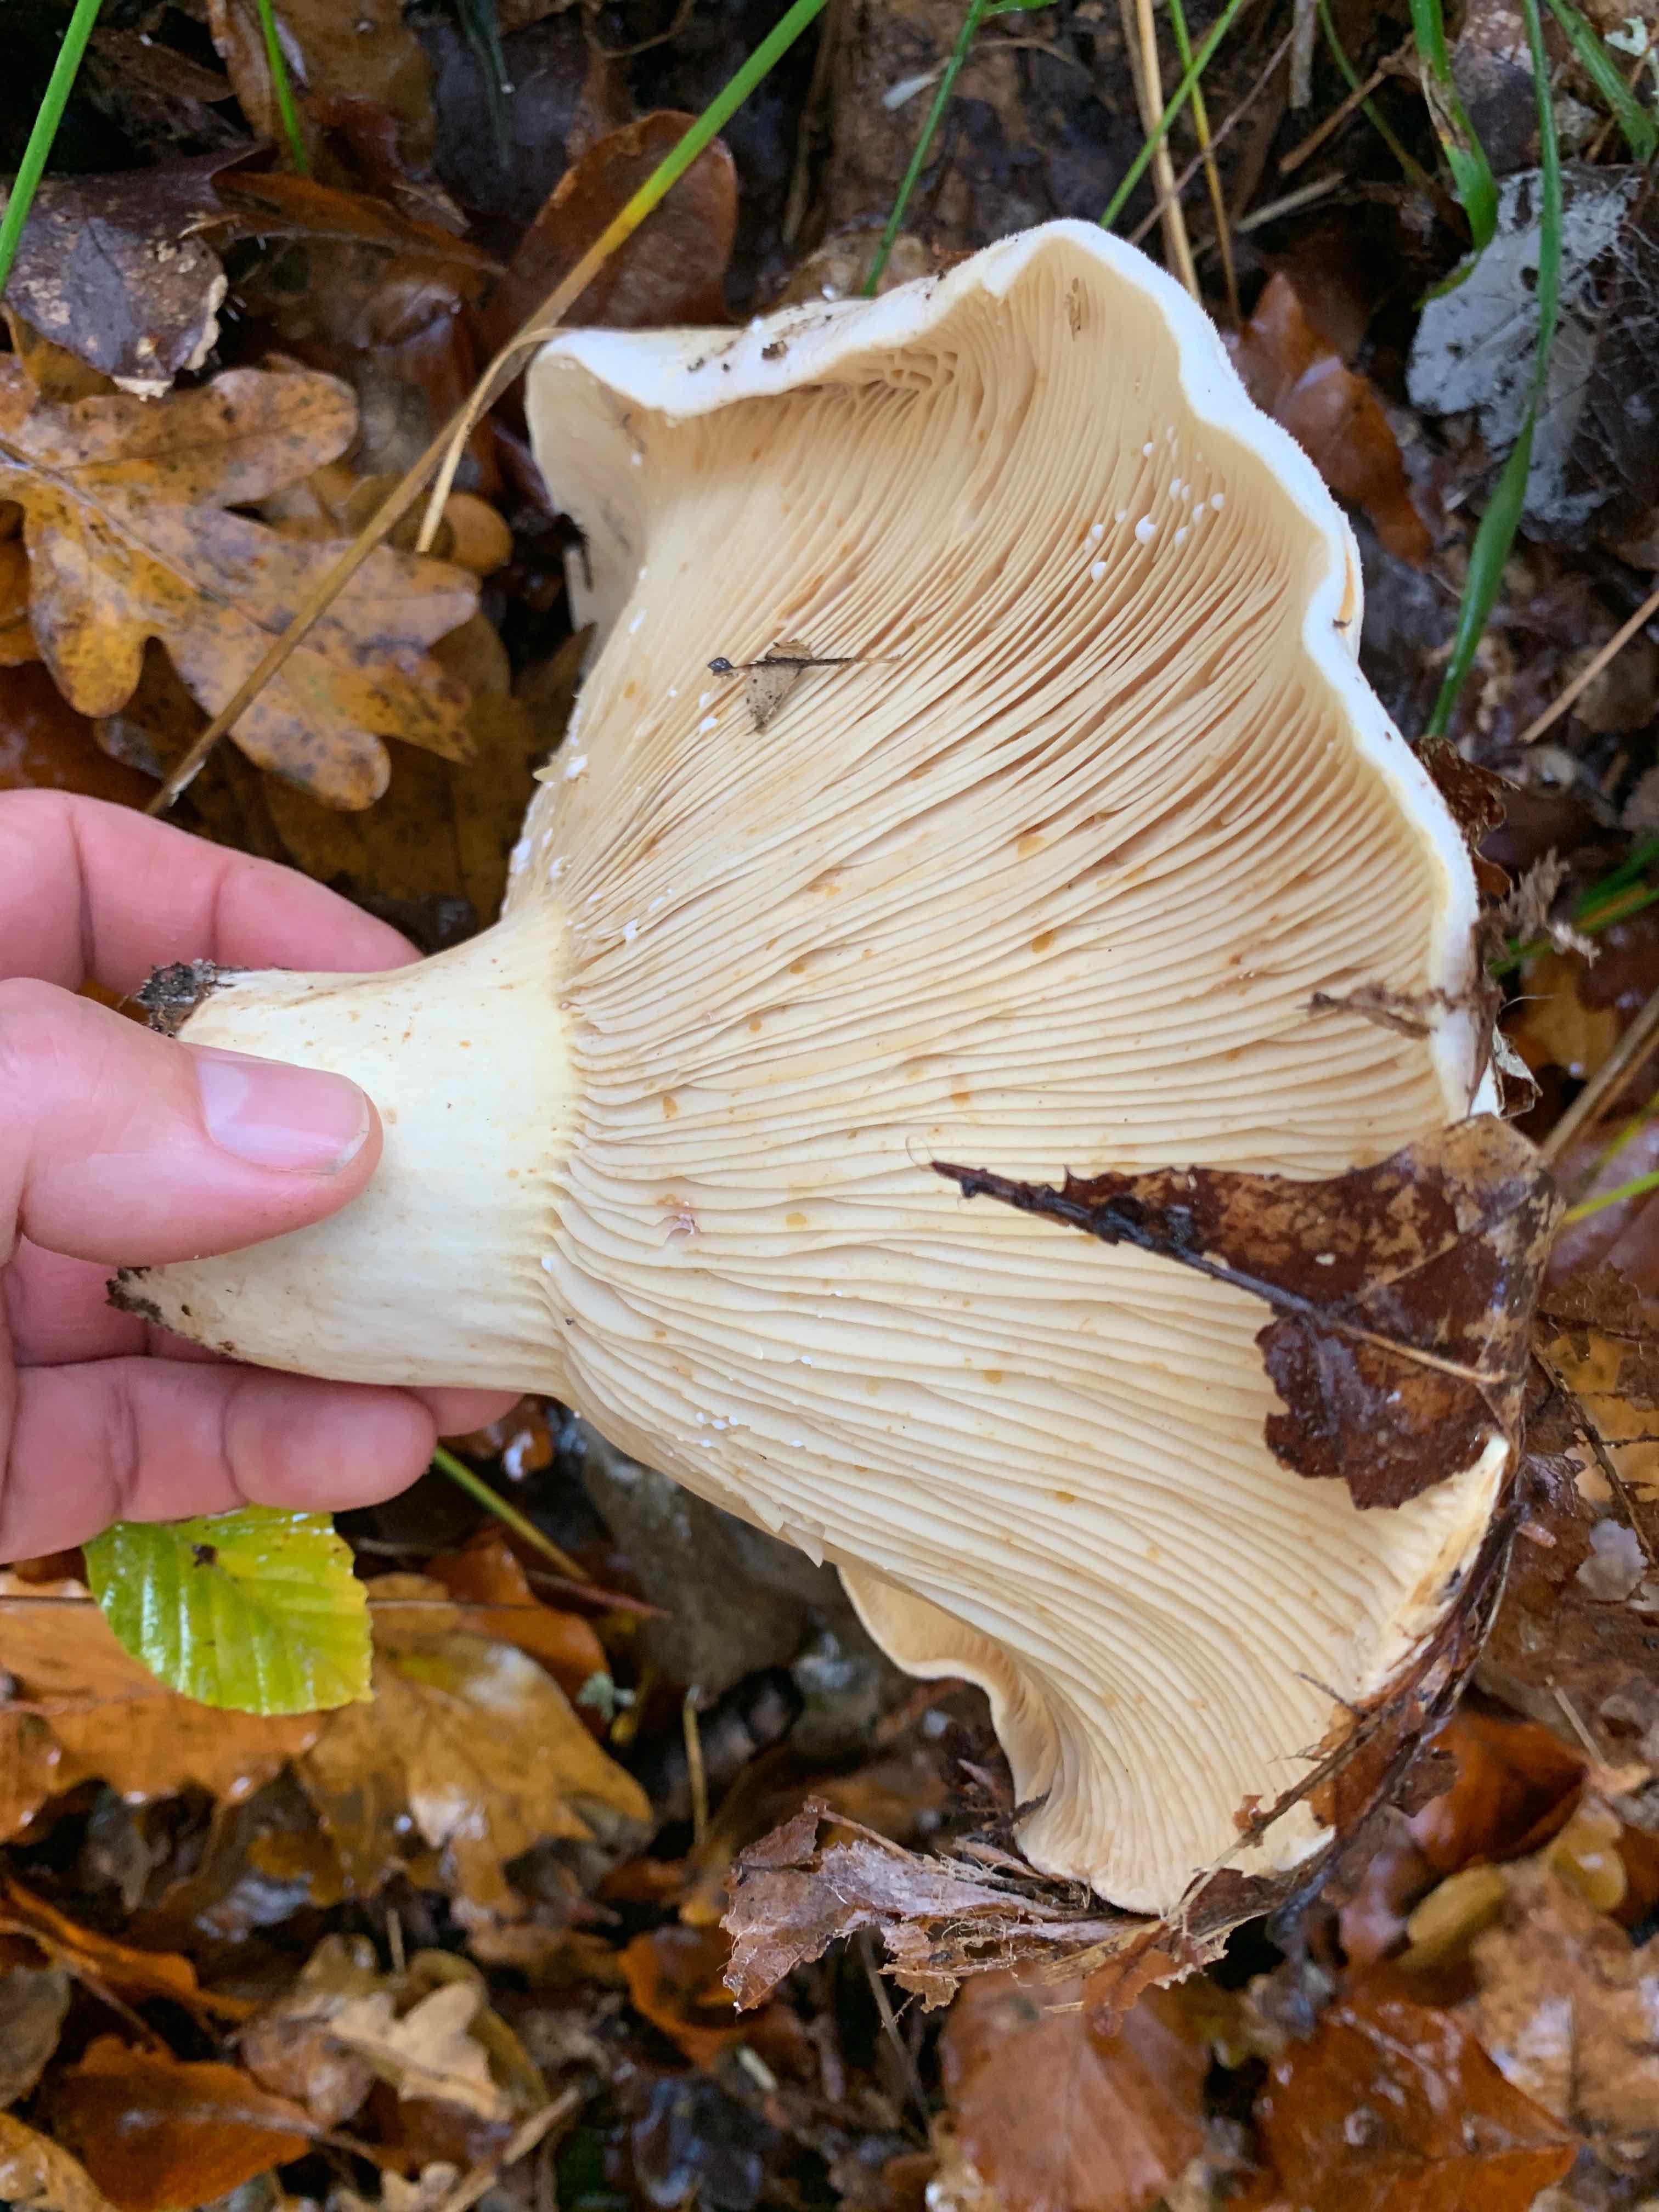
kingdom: Fungi
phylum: Basidiomycota
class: Agaricomycetes
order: Russulales
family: Russulaceae
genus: Lactifluus
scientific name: Lactifluus
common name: mælkehat
